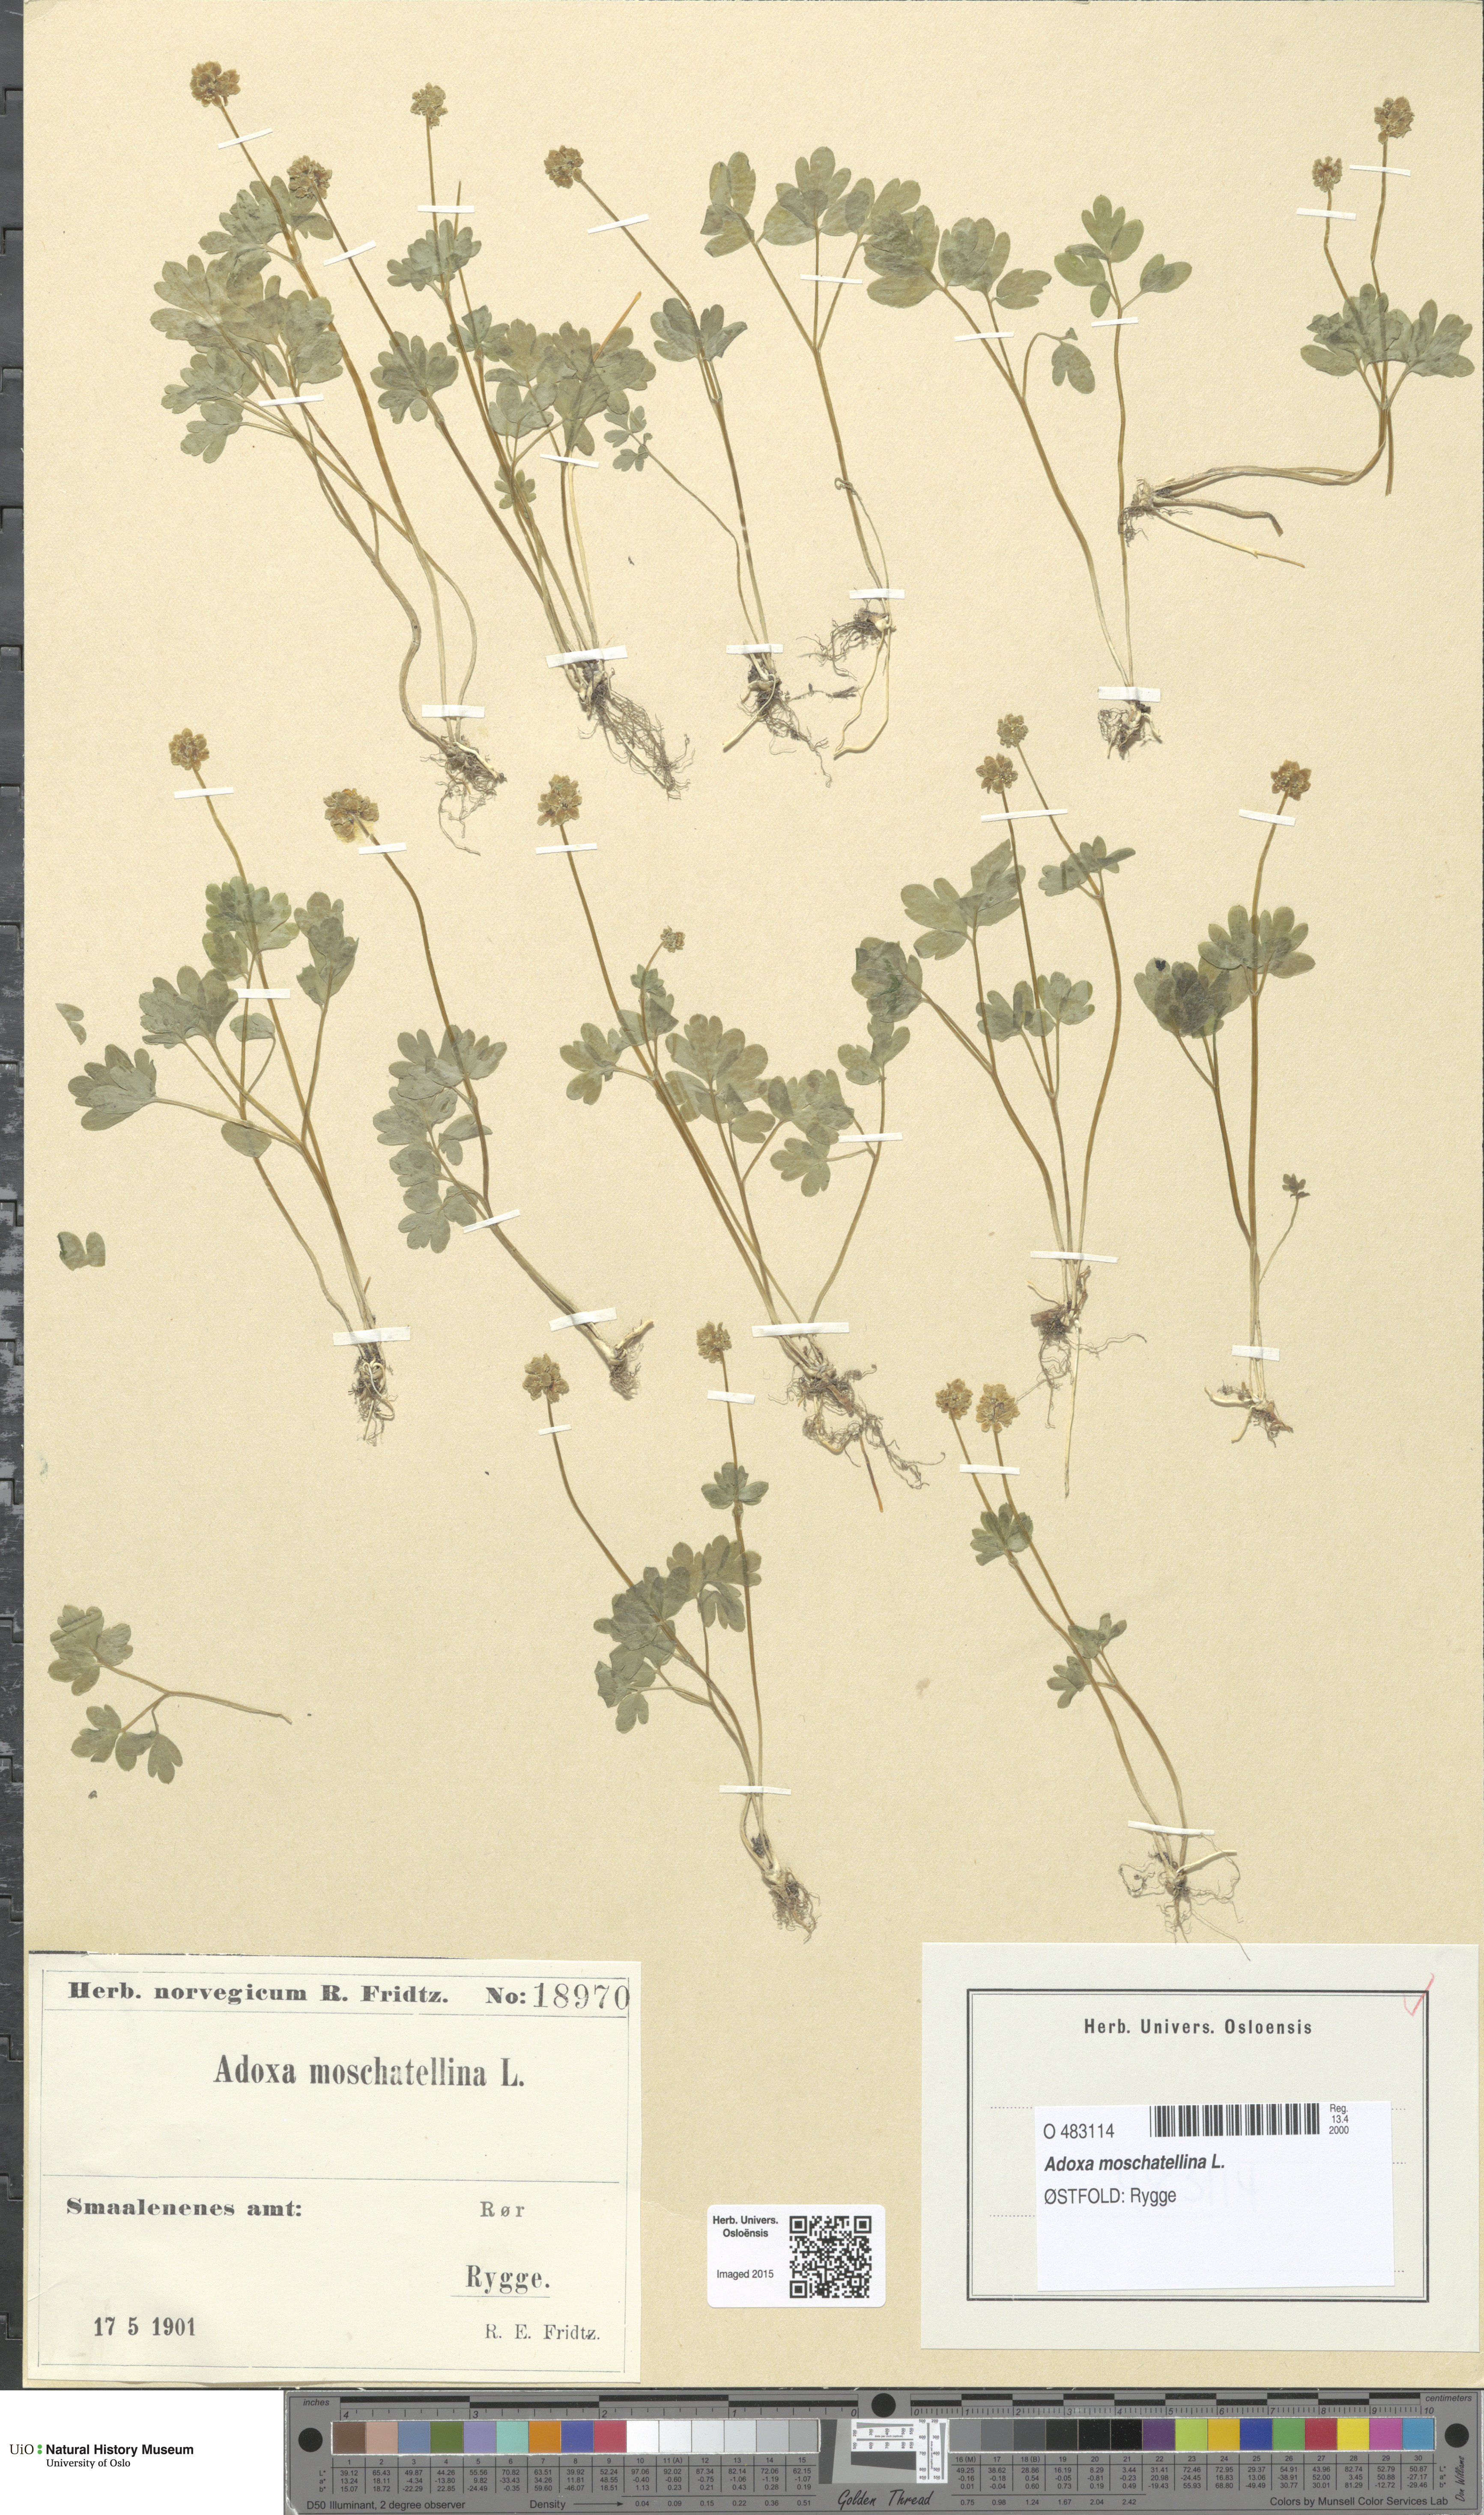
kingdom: Plantae
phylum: Tracheophyta
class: Magnoliopsida
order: Dipsacales
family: Viburnaceae
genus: Adoxa
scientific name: Adoxa moschatellina
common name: Moschatel
